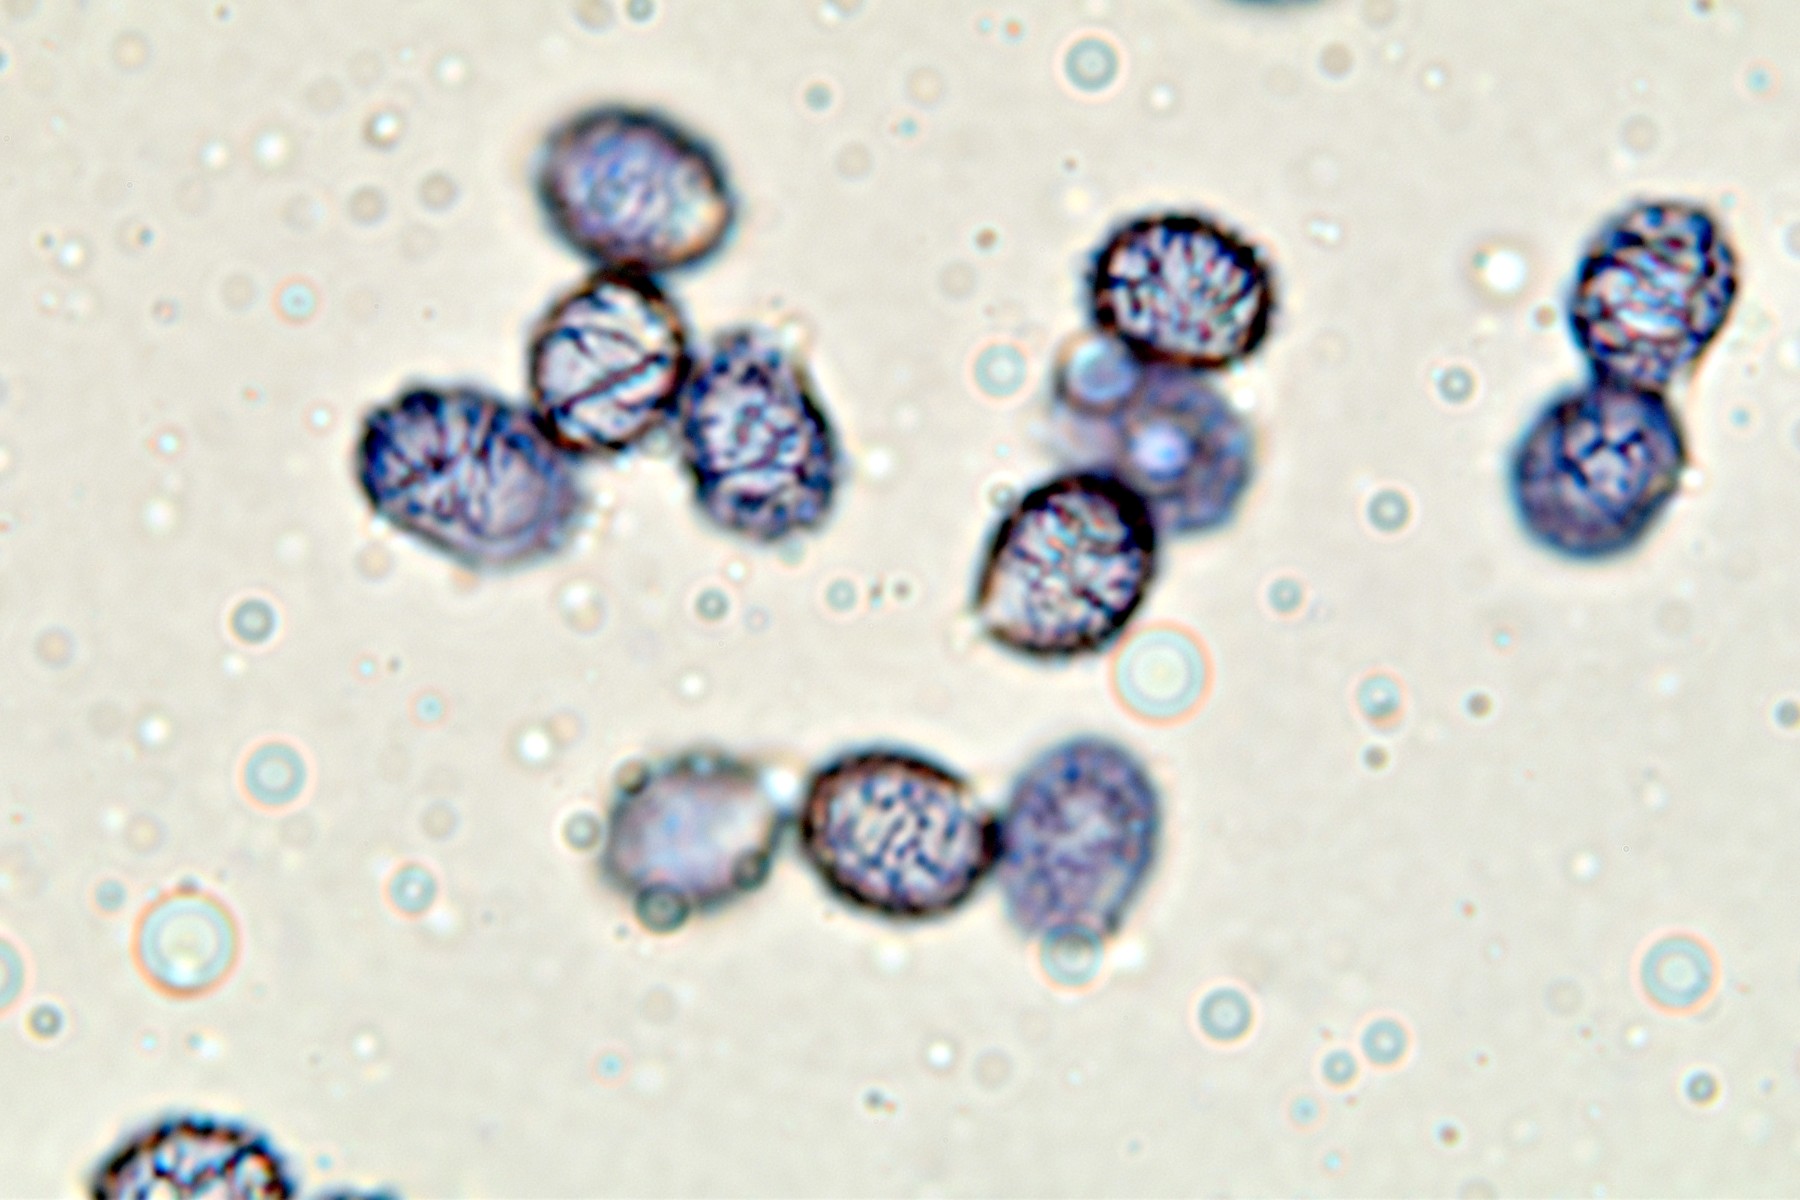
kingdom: Fungi
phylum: Basidiomycota
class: Agaricomycetes
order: Russulales
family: Russulaceae
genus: Lactarius
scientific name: Lactarius hepaticus
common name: leverbrun mælkehat
